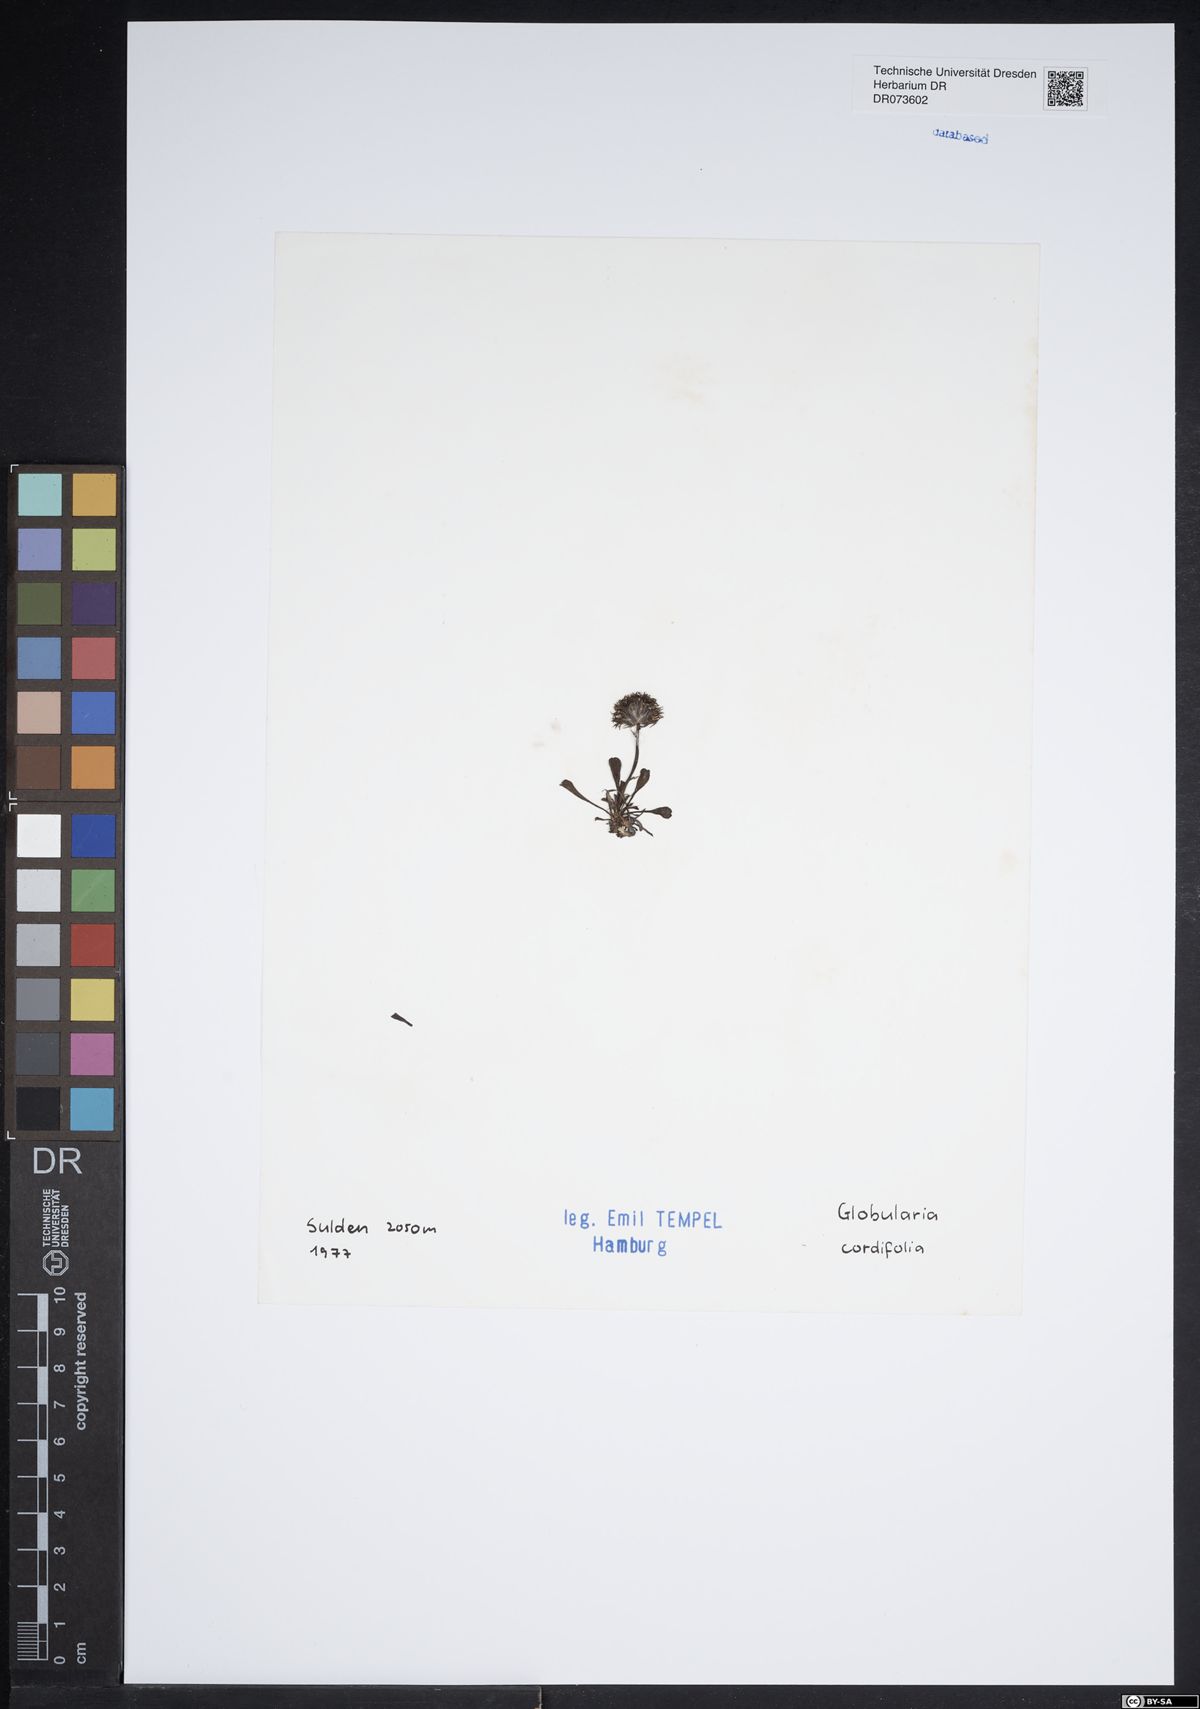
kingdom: Plantae
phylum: Tracheophyta
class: Magnoliopsida
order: Lamiales
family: Plantaginaceae
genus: Globularia
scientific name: Globularia cordifolia
